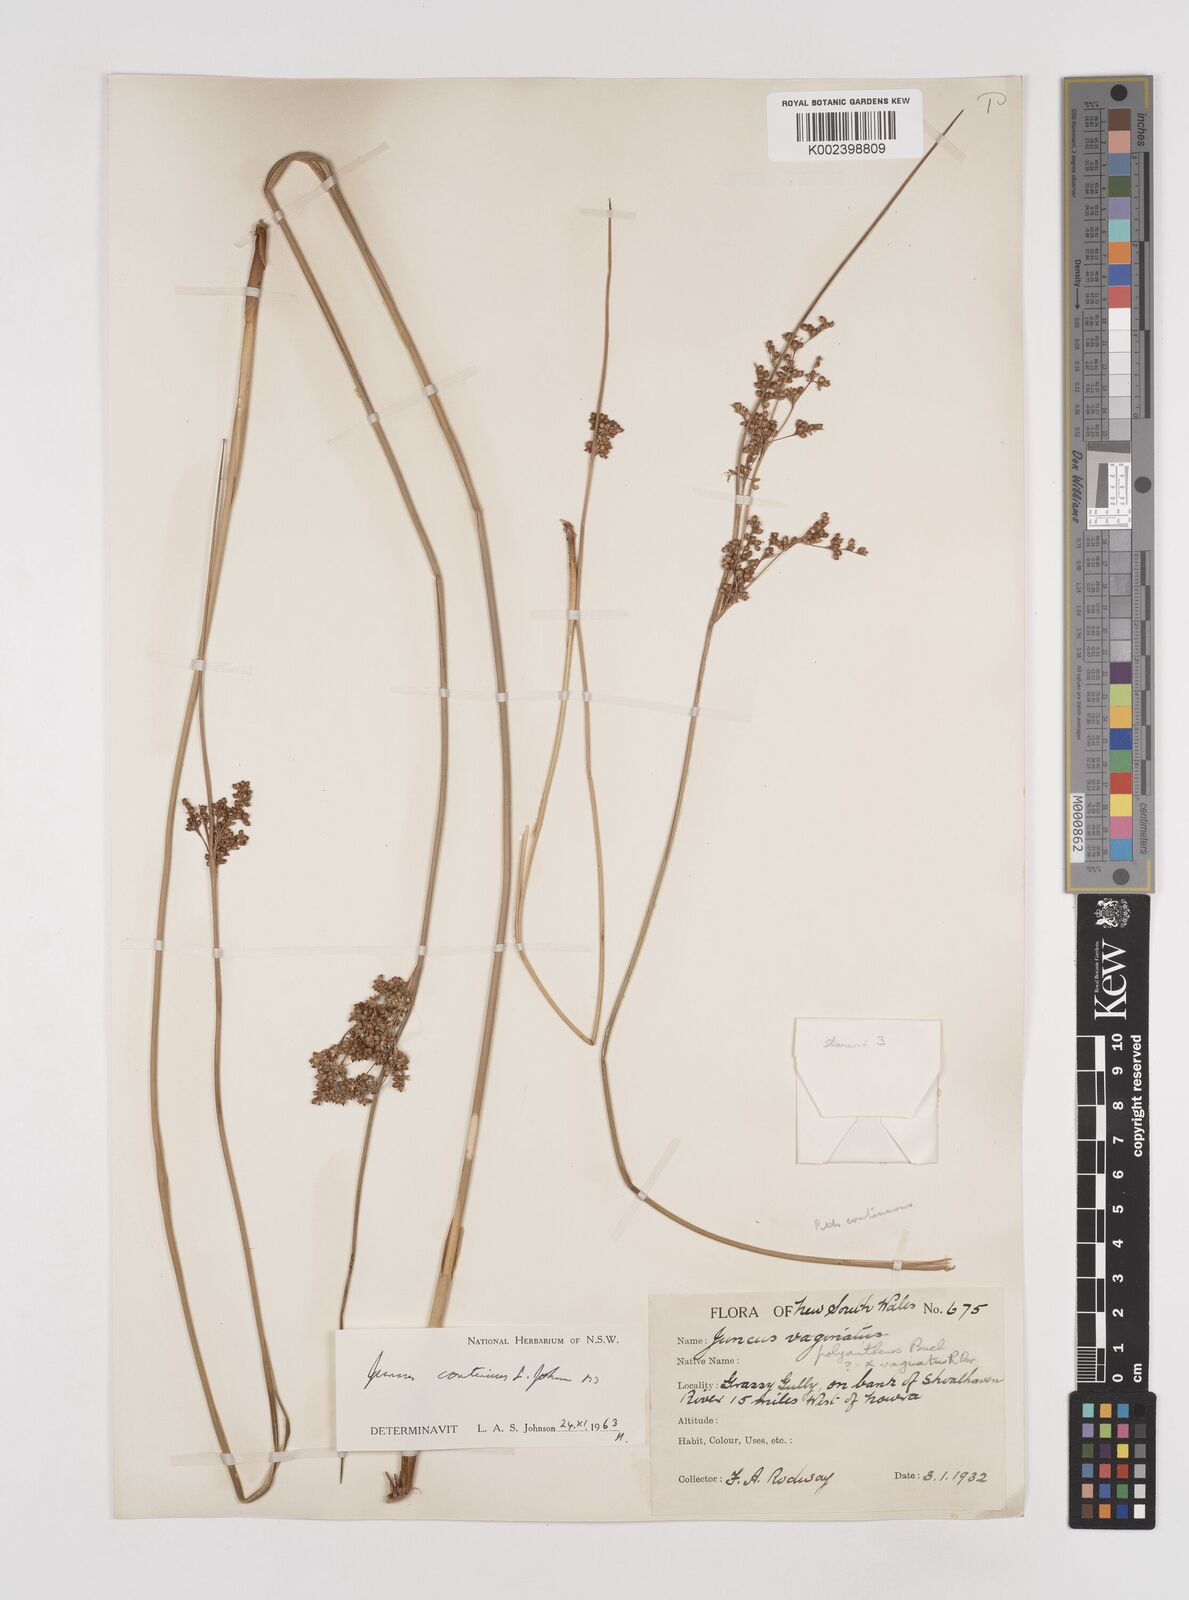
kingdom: Plantae
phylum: Tracheophyta
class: Liliopsida
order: Poales
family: Juncaceae
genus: Juncus
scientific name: Juncus continuus
